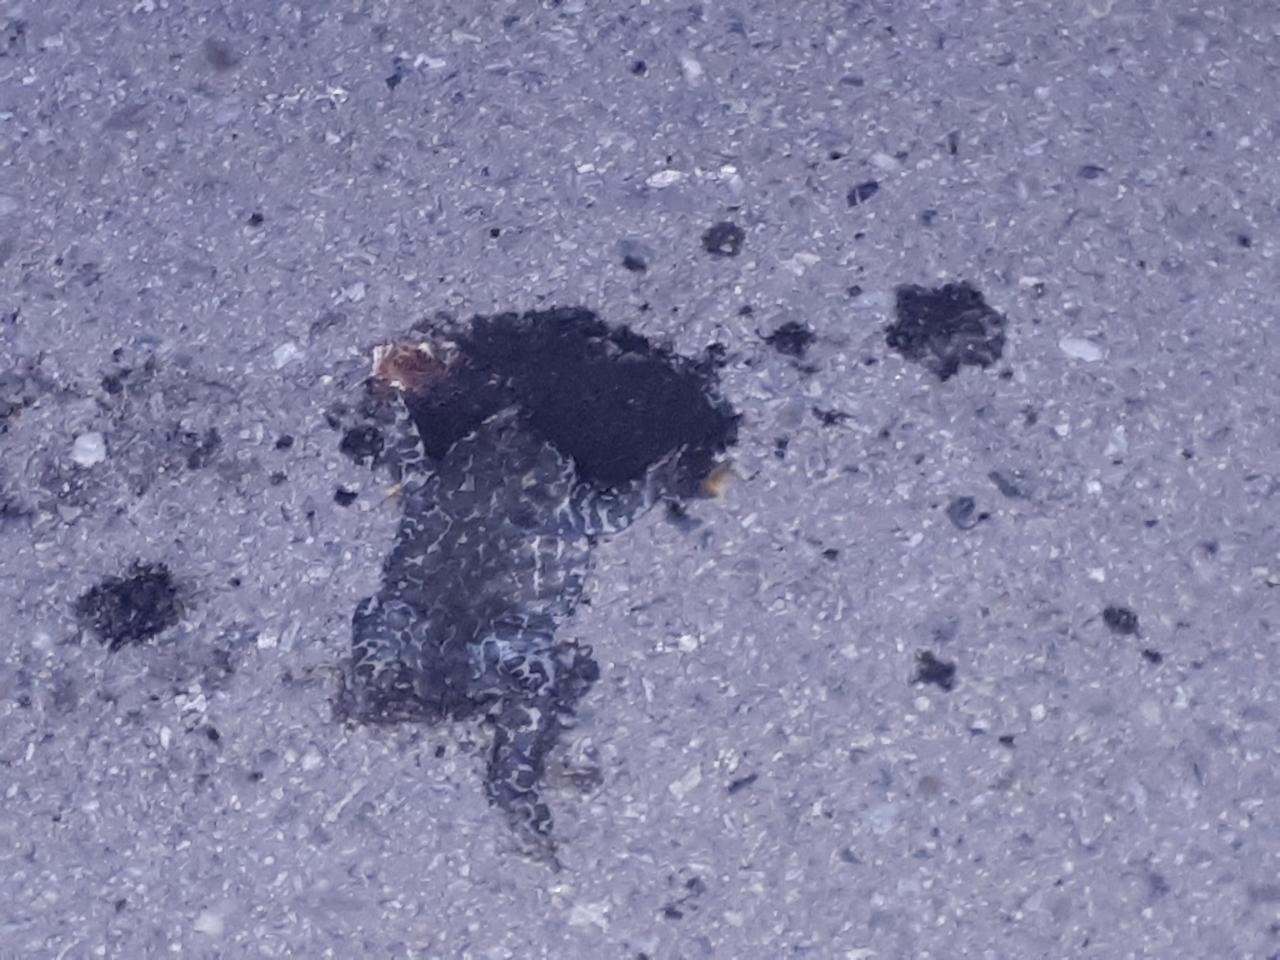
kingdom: Animalia
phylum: Chordata
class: Amphibia
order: Anura
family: Bufonidae
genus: Bufotes
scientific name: Bufotes viridis
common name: European green toad
